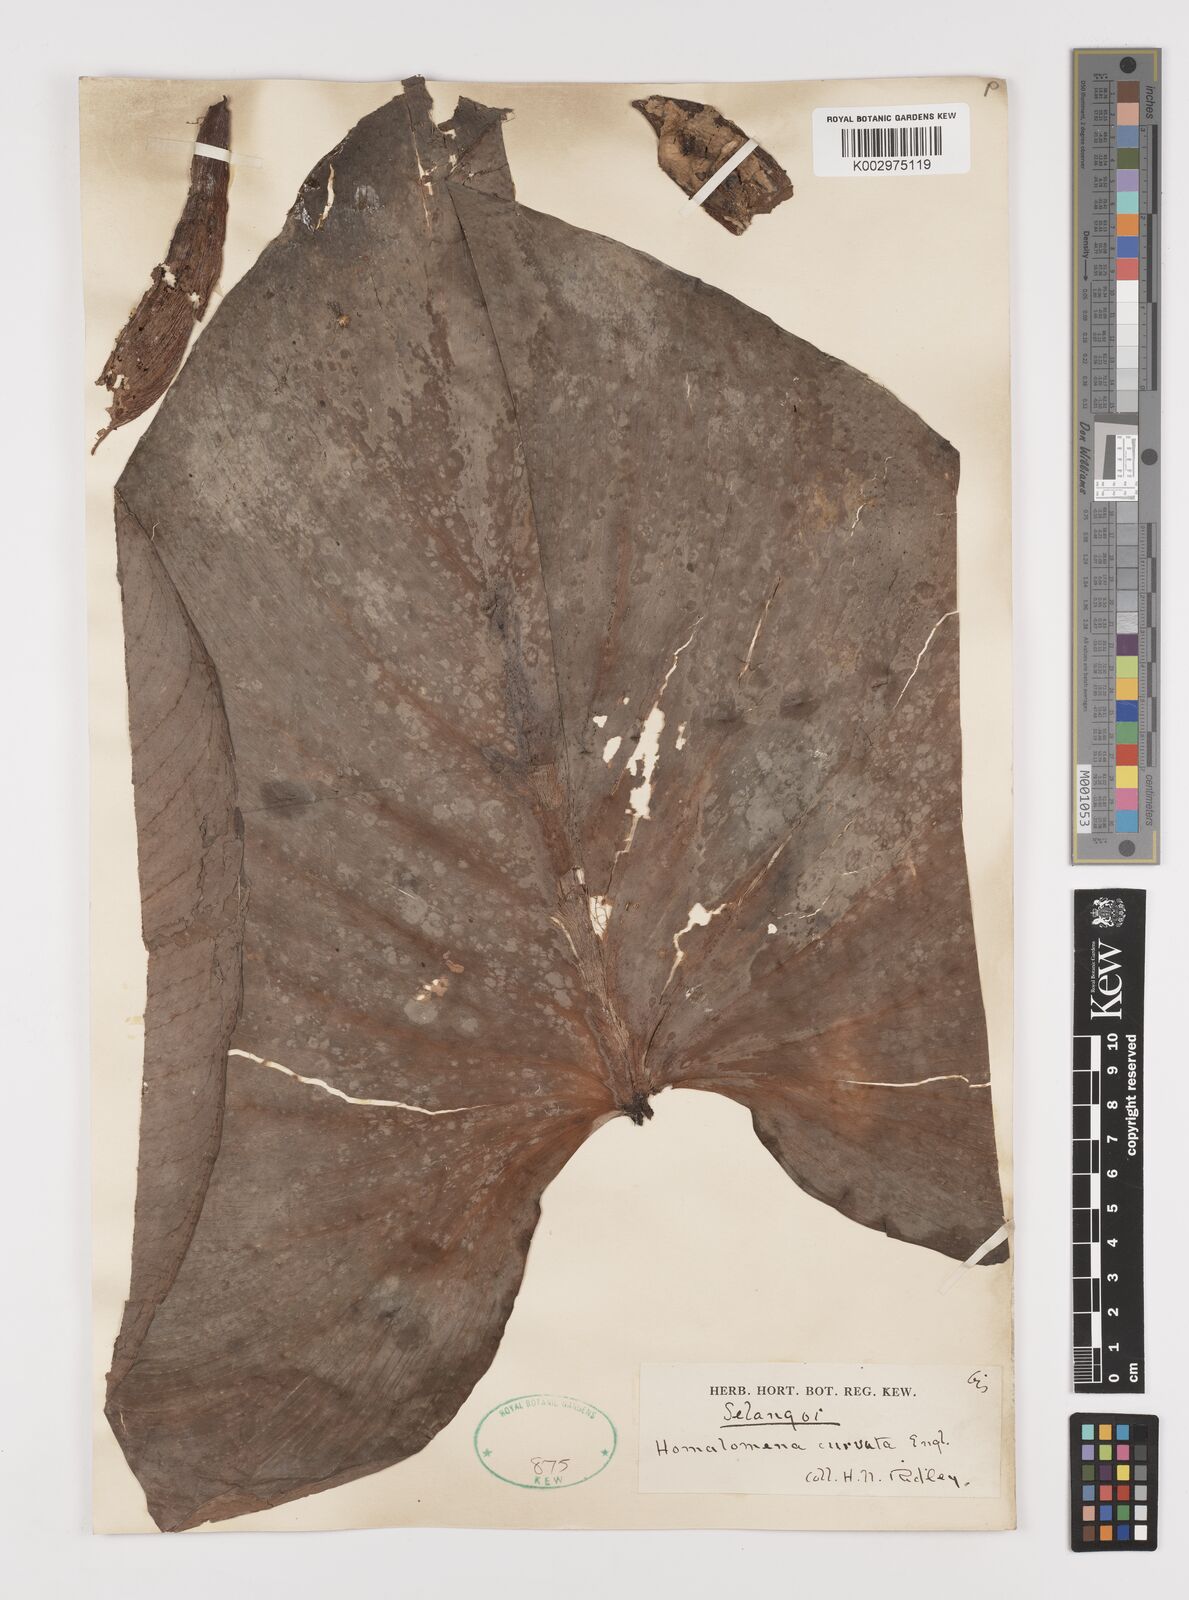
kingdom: Plantae
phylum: Tracheophyta
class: Liliopsida
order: Alismatales
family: Araceae
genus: Homalomena
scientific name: Homalomena pendula
